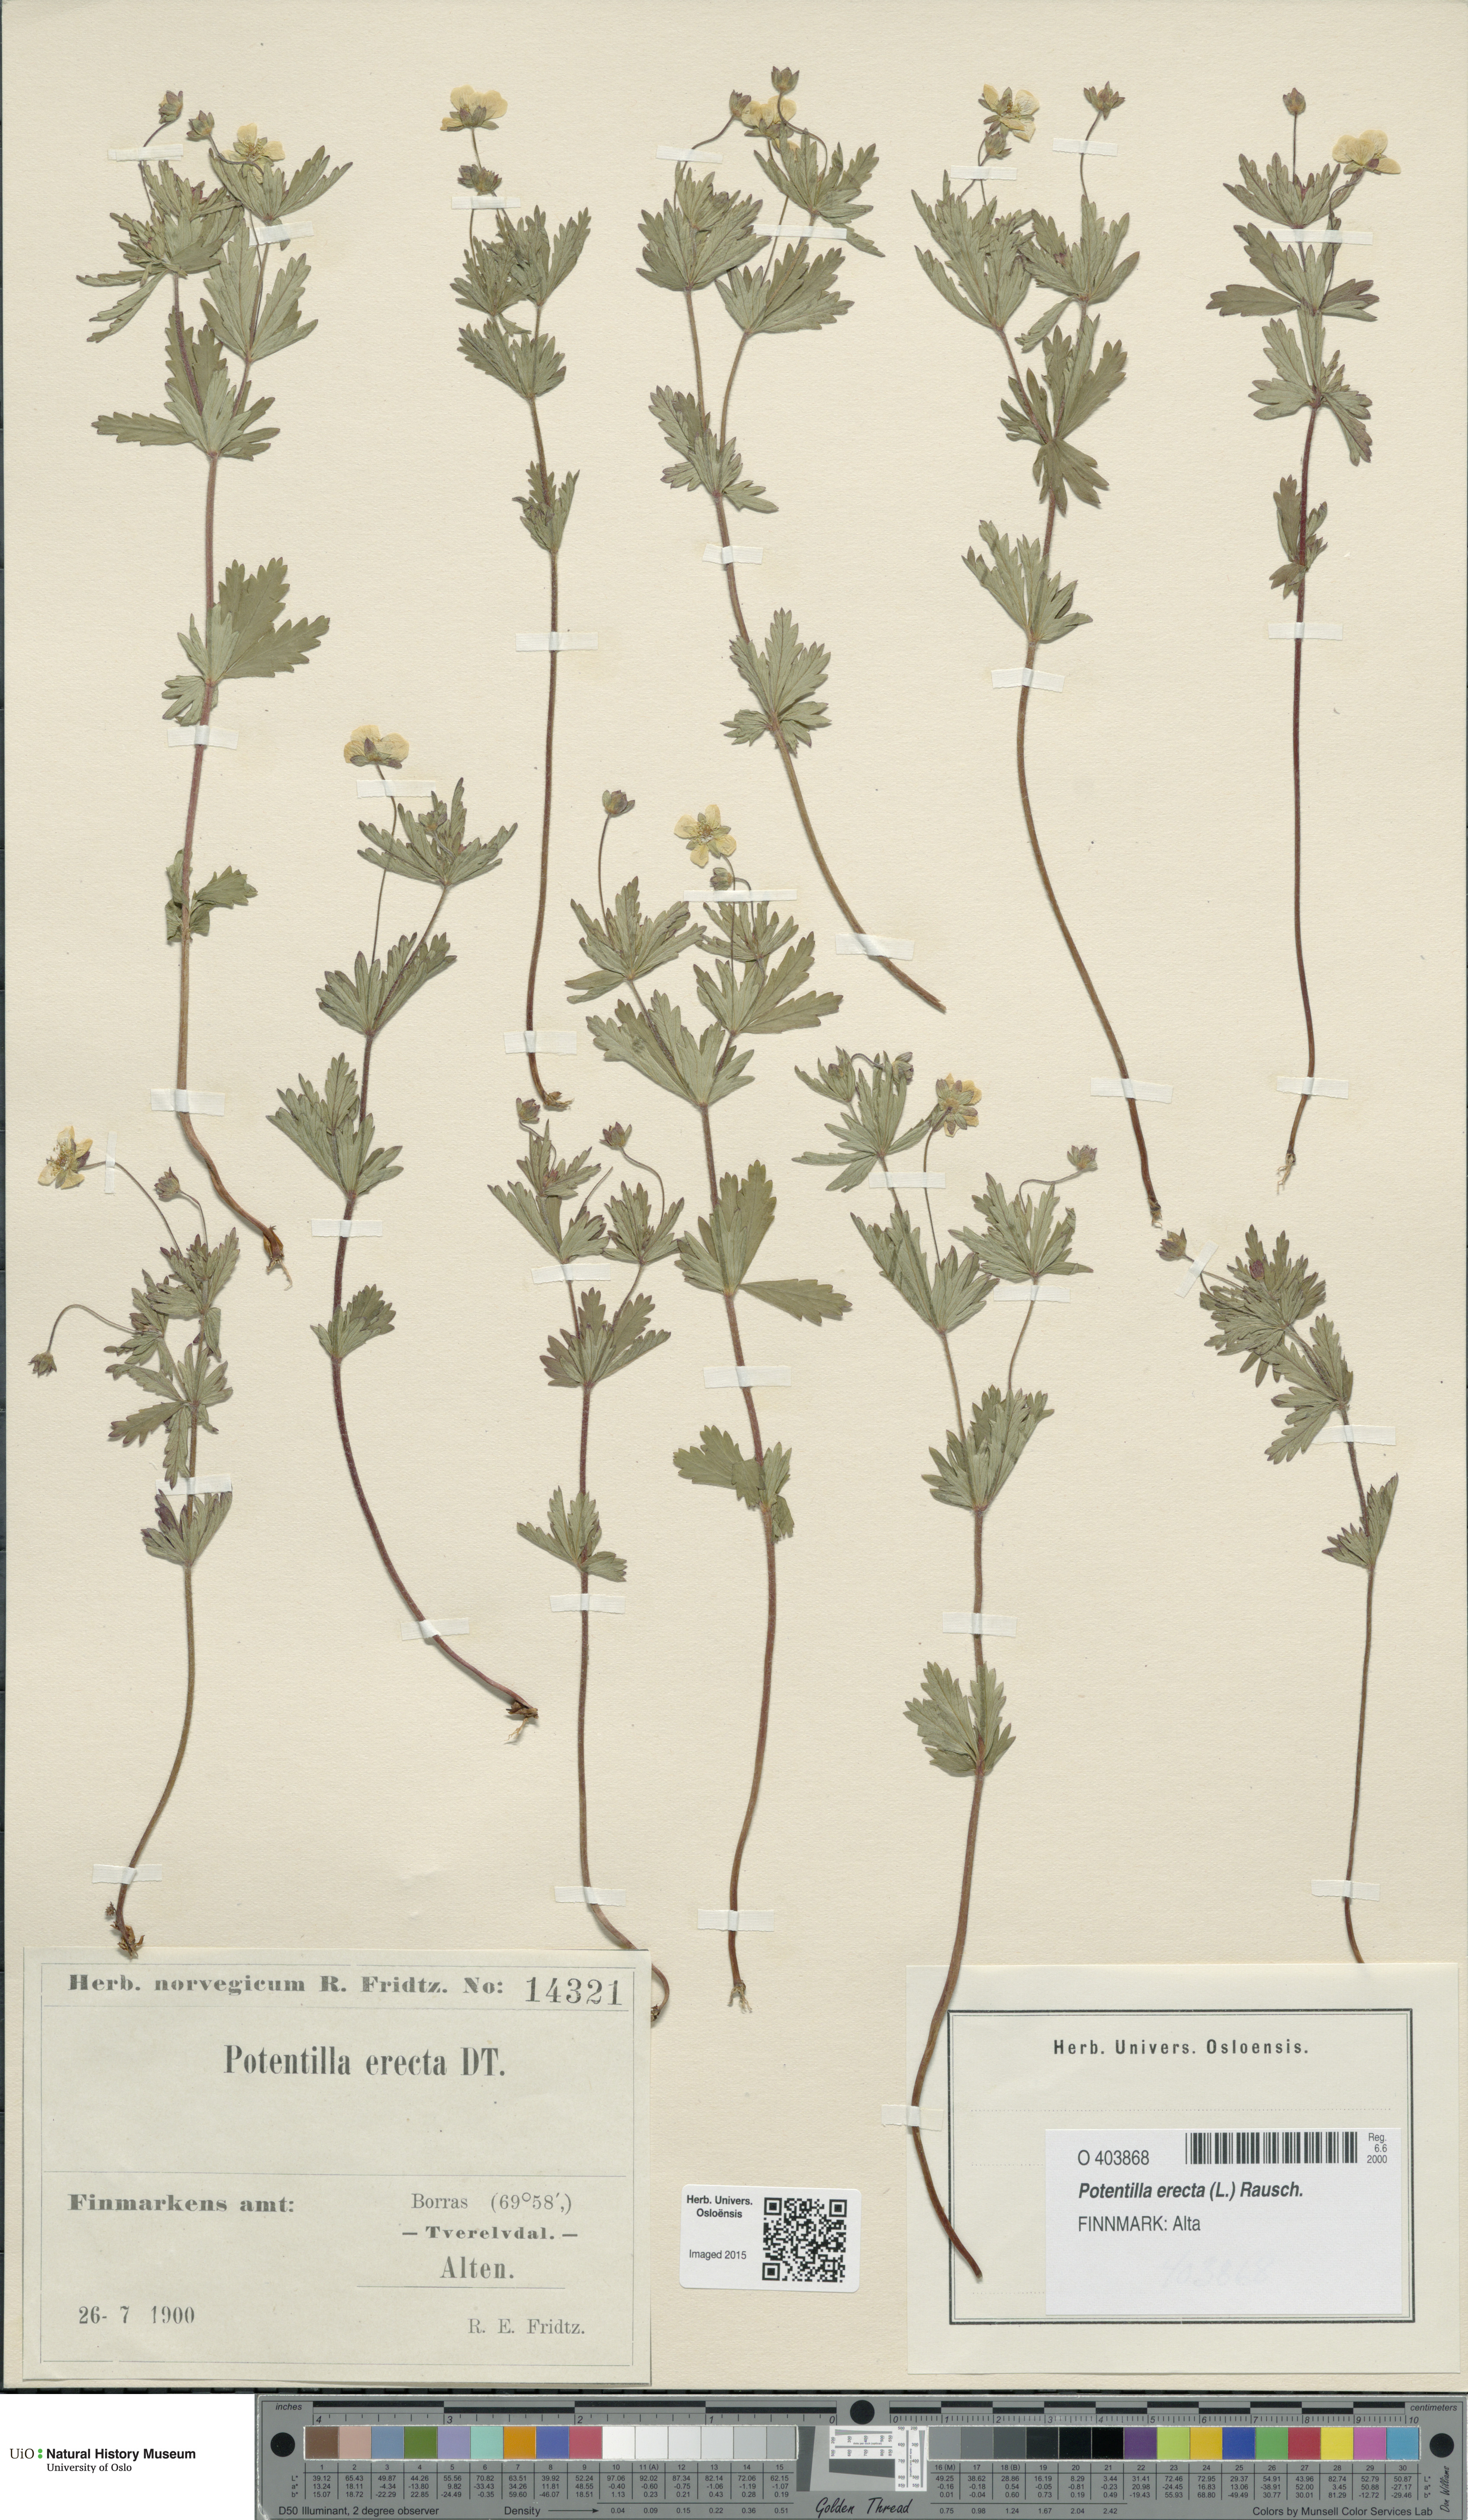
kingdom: Plantae
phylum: Tracheophyta
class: Magnoliopsida
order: Rosales
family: Rosaceae
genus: Potentilla
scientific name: Potentilla erecta
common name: Tormentil
